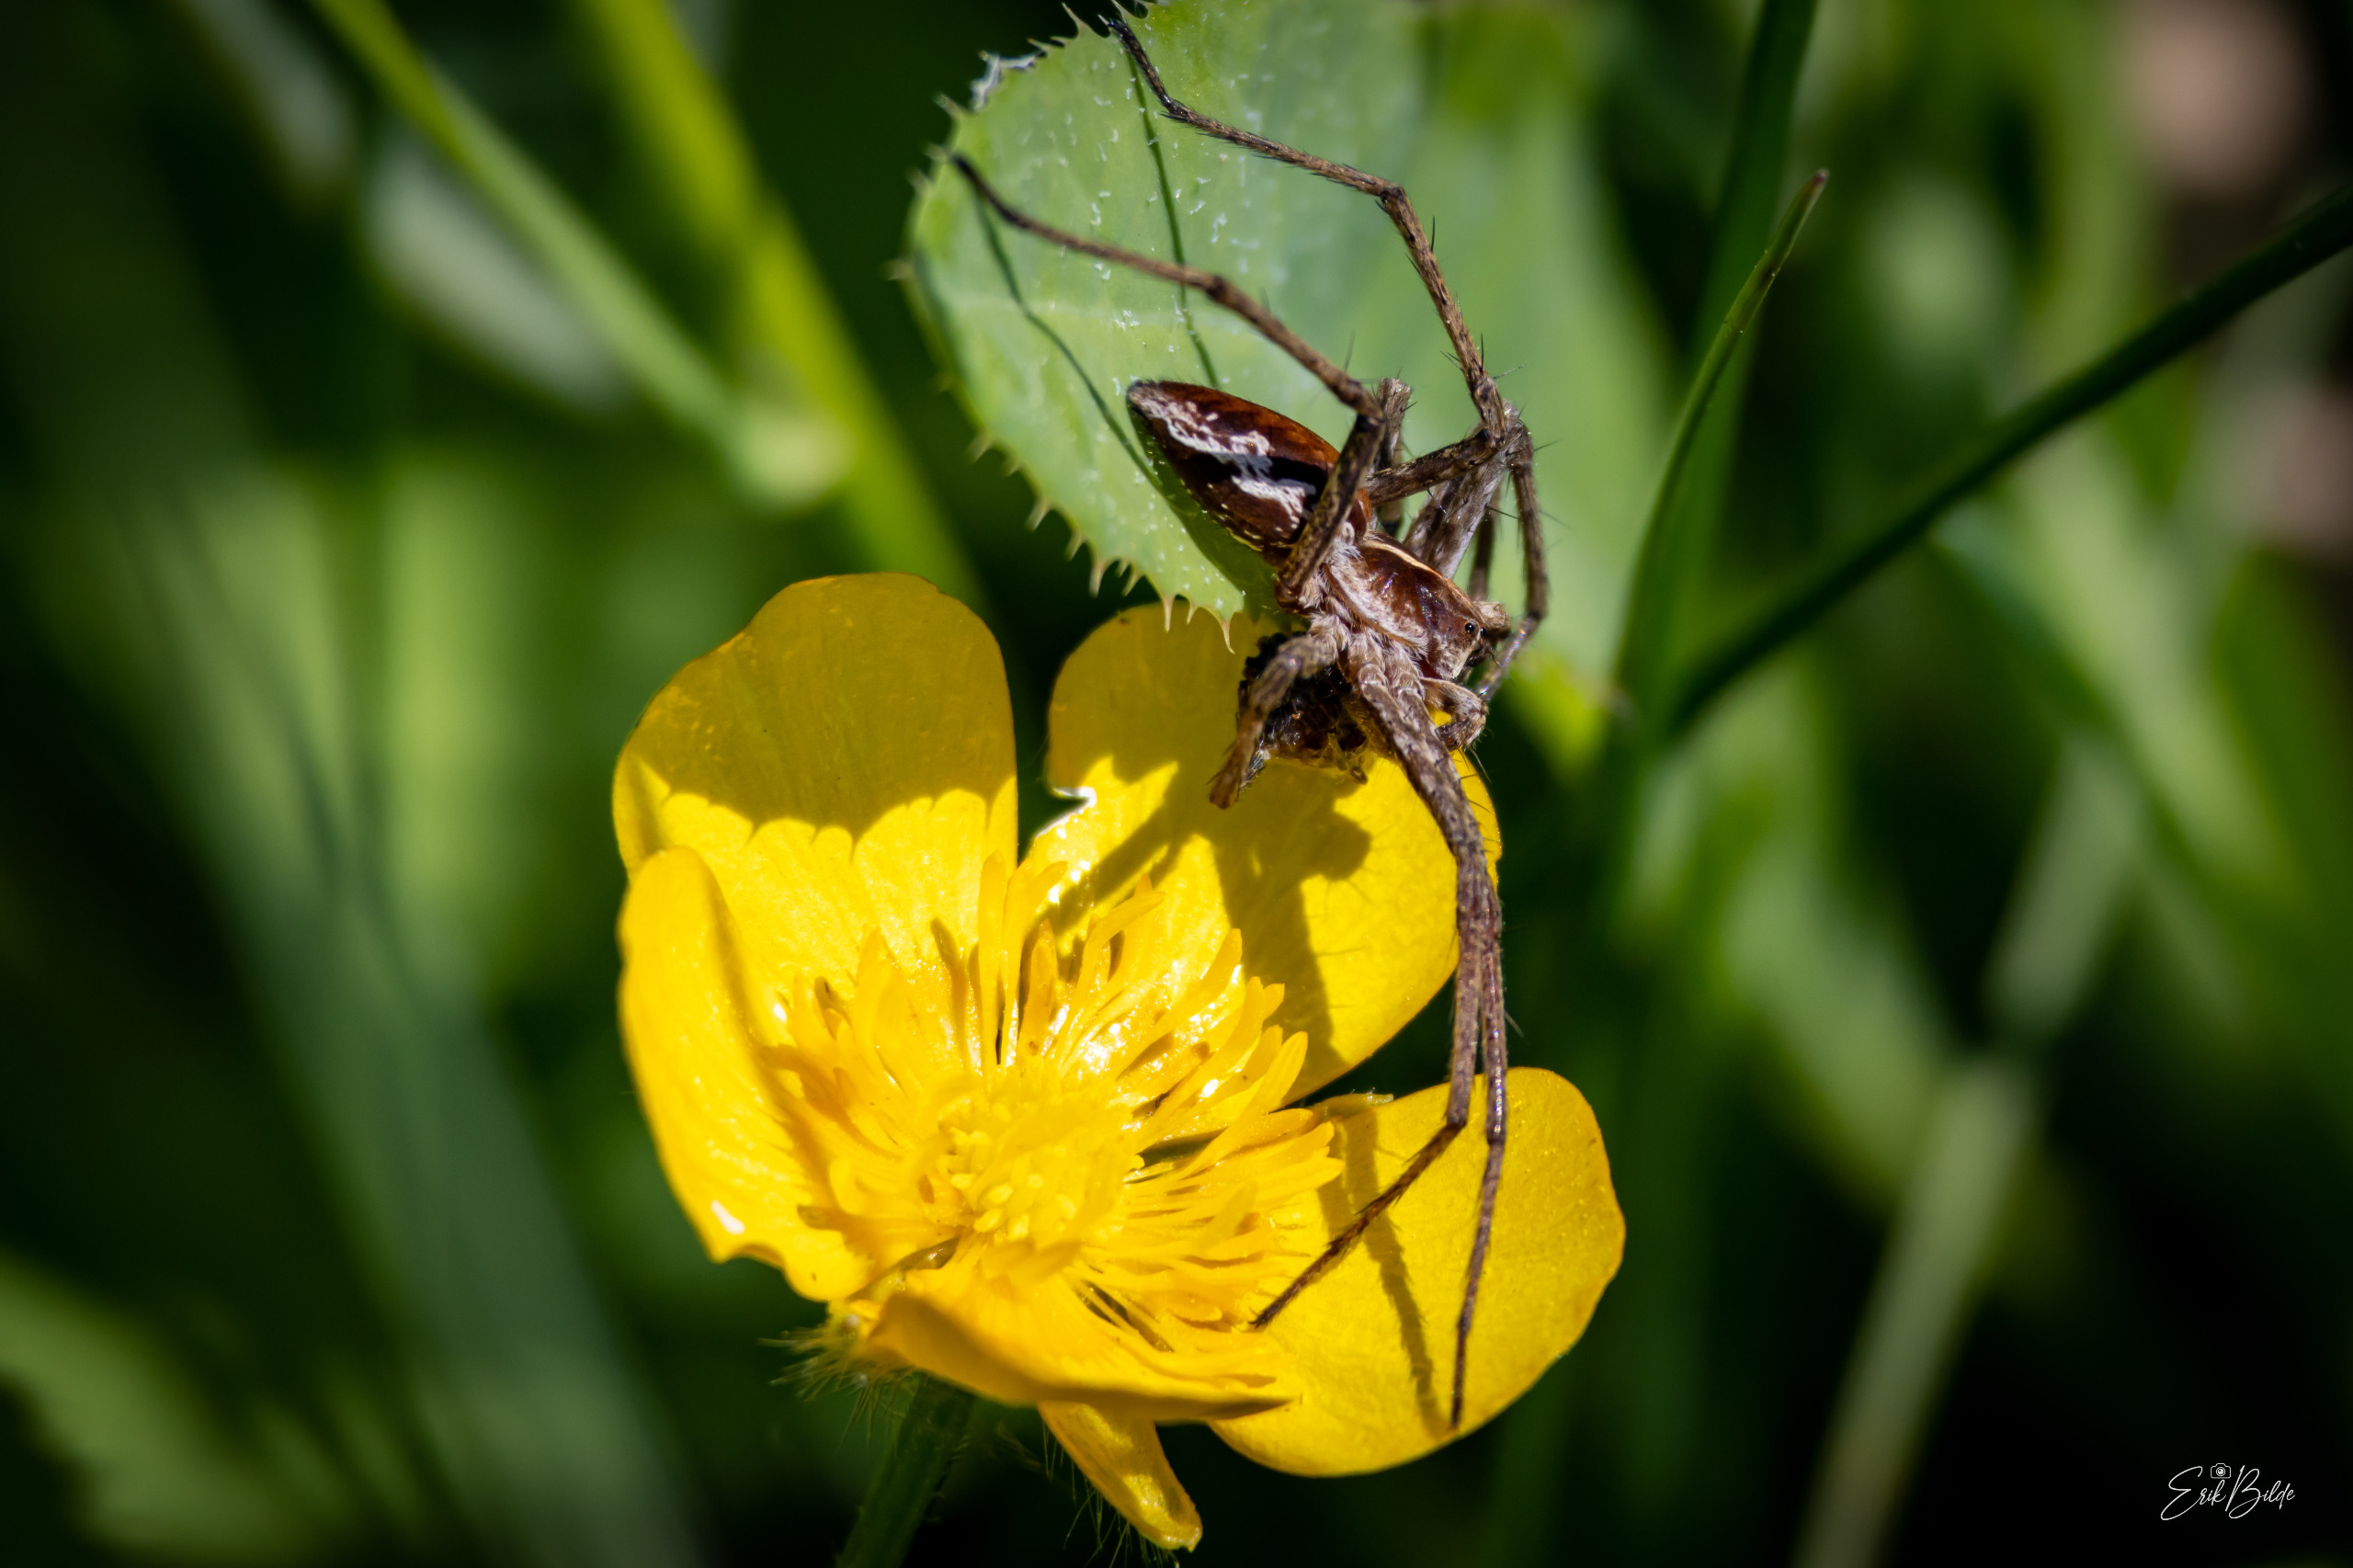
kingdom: Animalia
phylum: Arthropoda
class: Arachnida
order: Araneae
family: Pisauridae
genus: Pisaura
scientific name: Pisaura mirabilis
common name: Almindelig rovedderkop
